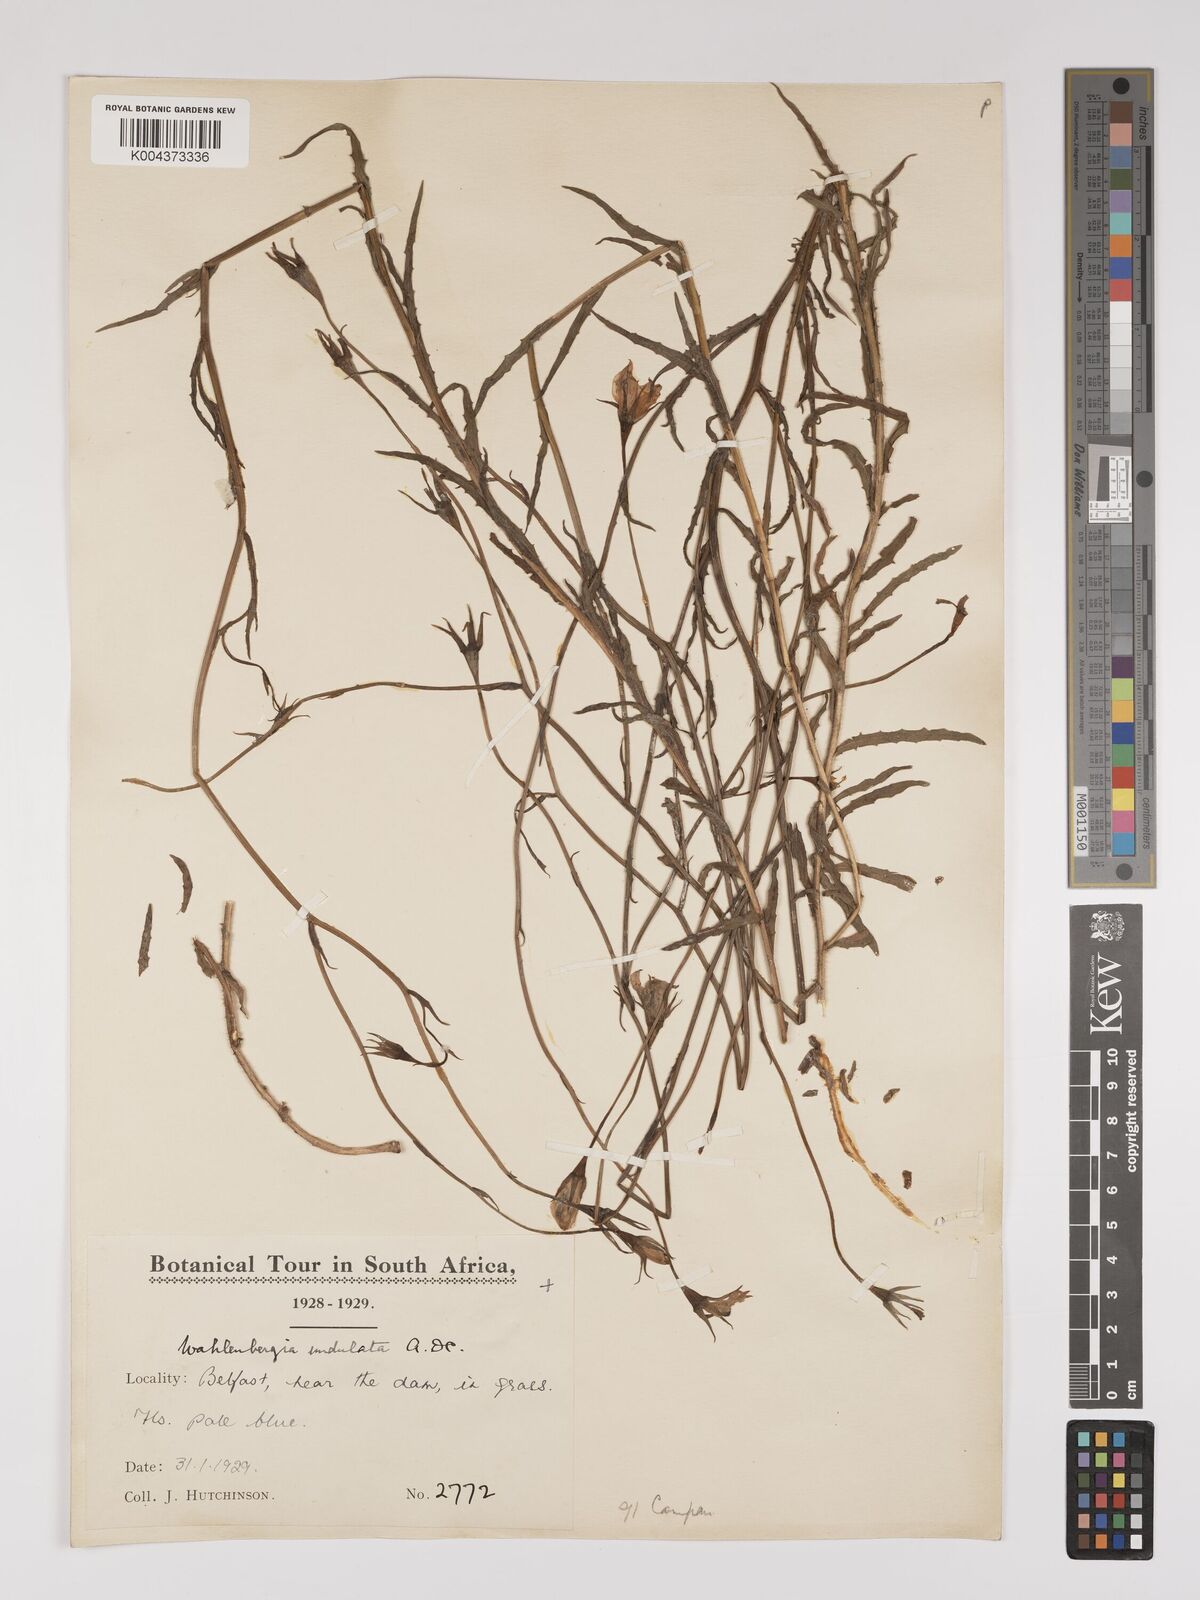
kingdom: Plantae
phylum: Tracheophyta
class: Magnoliopsida
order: Asterales
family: Campanulaceae
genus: Wahlenbergia
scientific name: Wahlenbergia undulata
